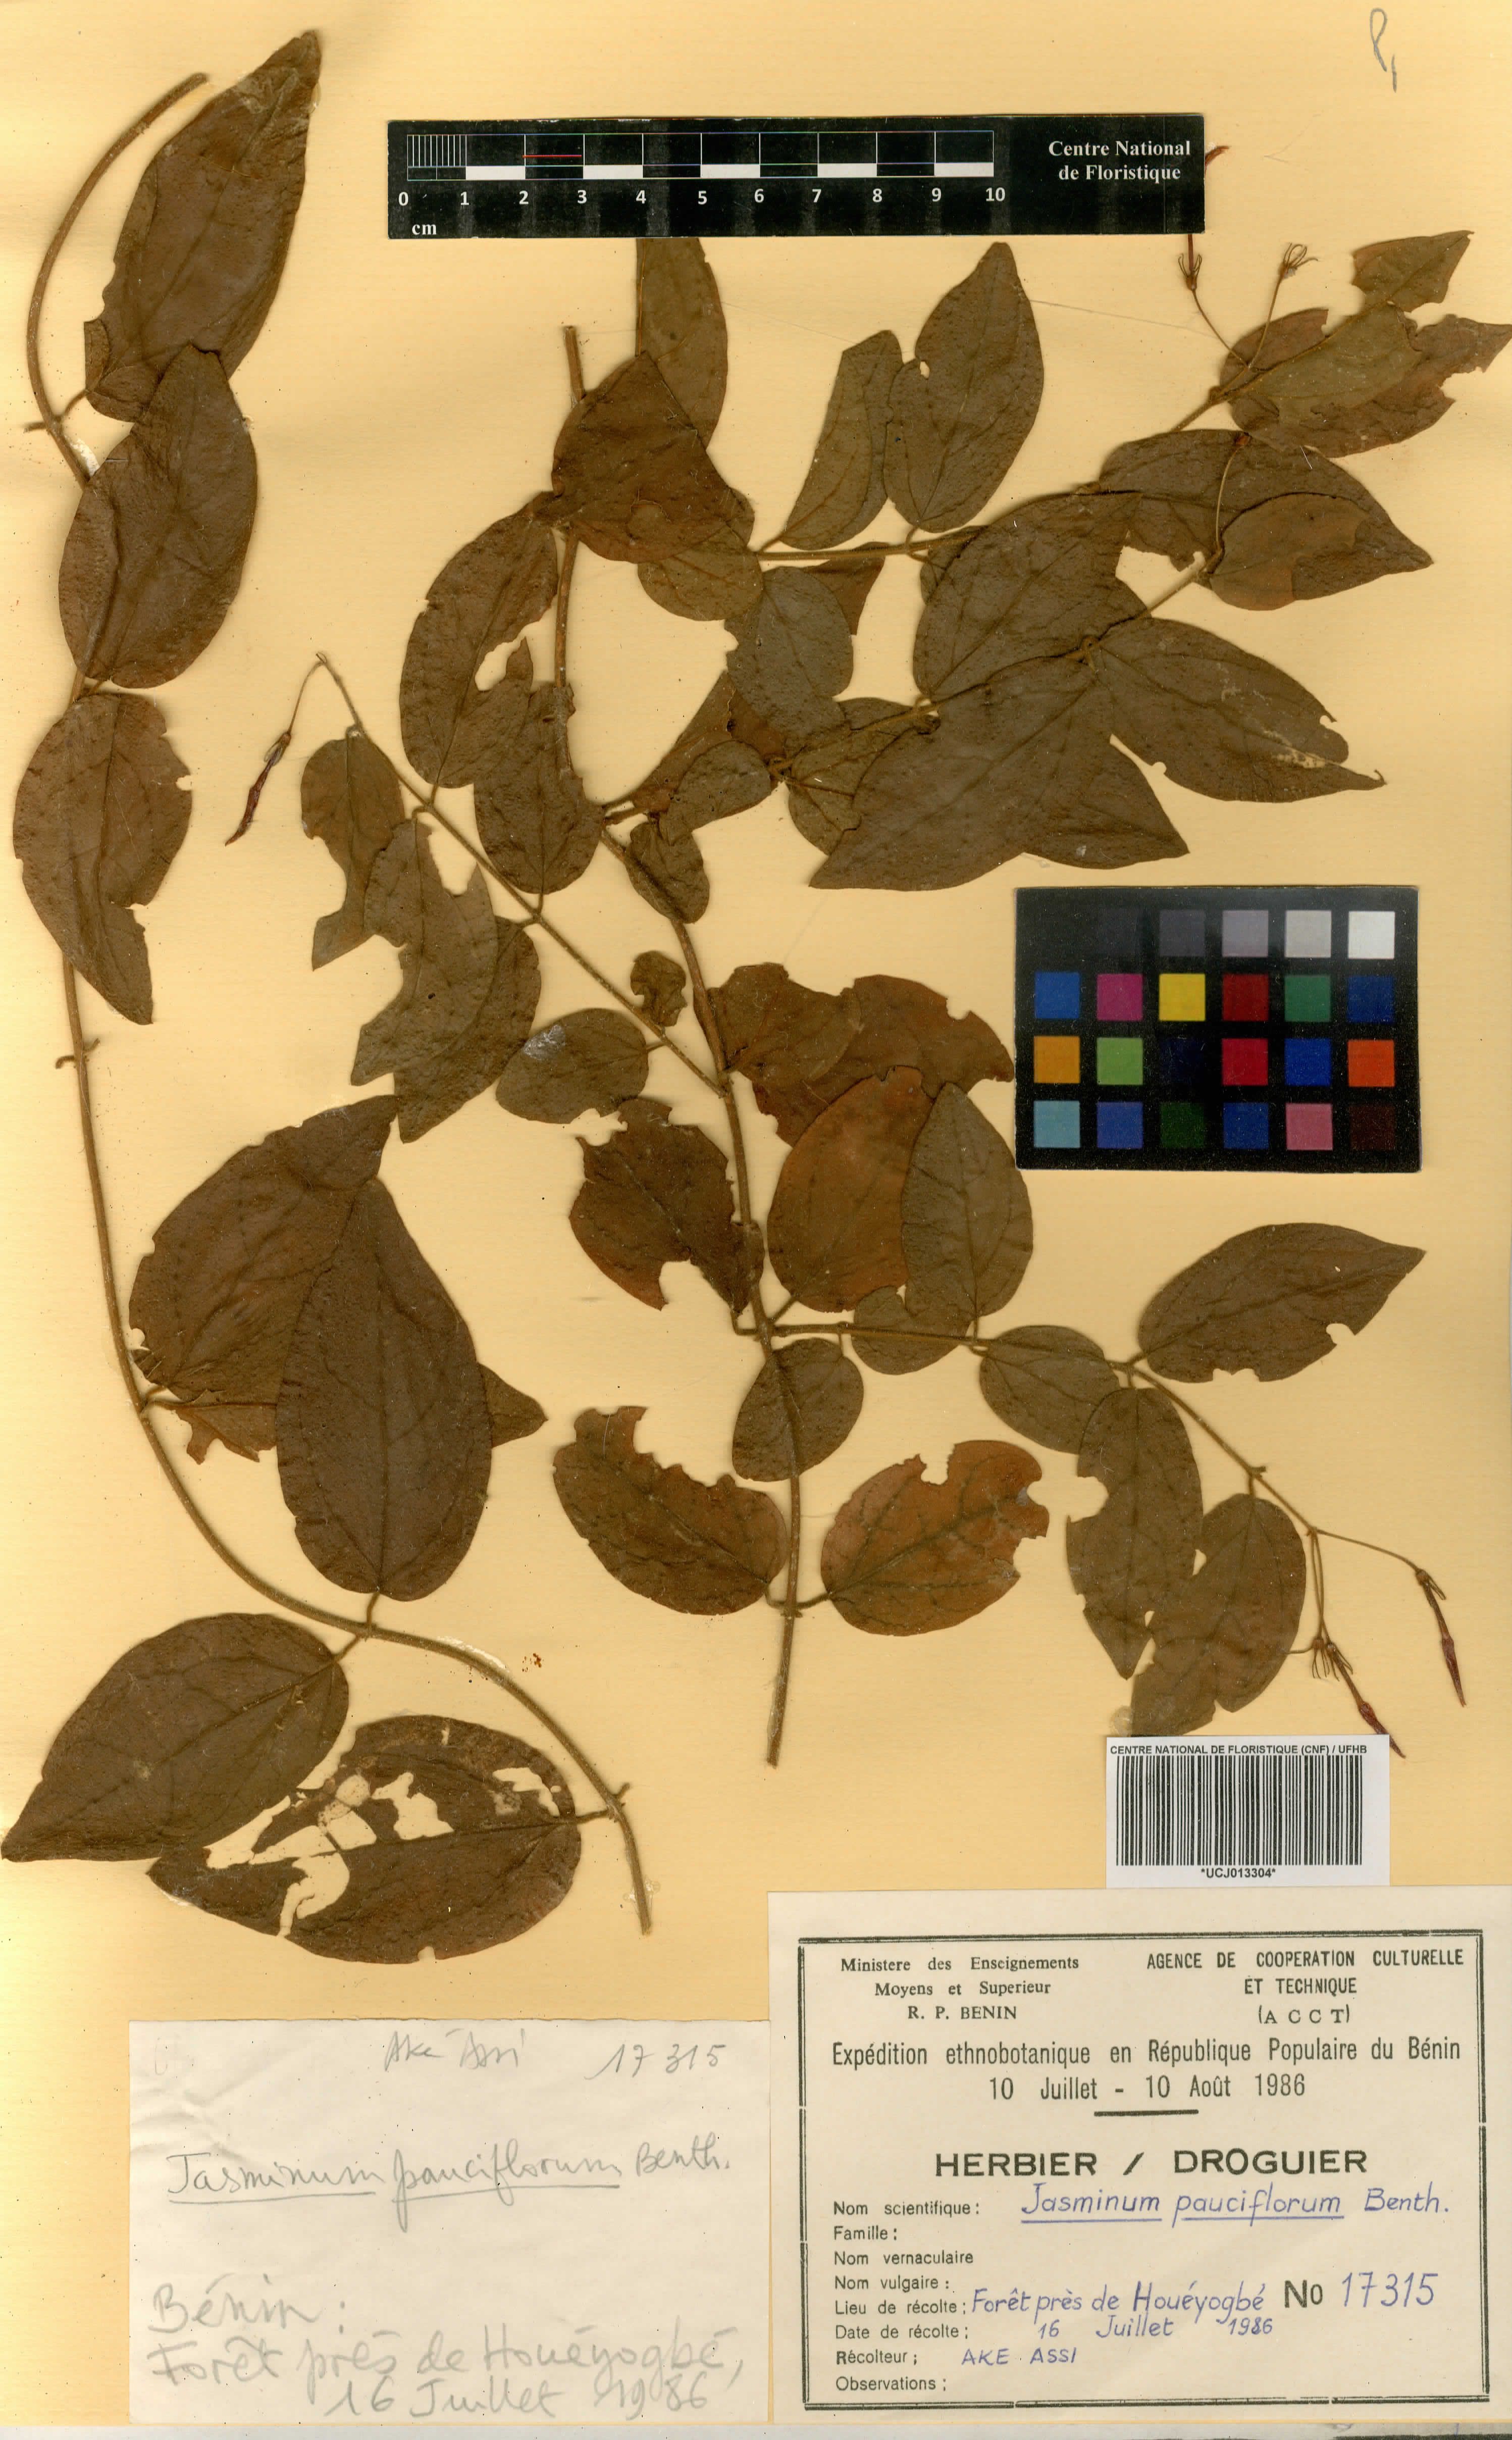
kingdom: Plantae
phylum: Tracheophyta
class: Magnoliopsida
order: Lamiales
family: Oleaceae
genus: Jasminum
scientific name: Jasminum pauciflorum
